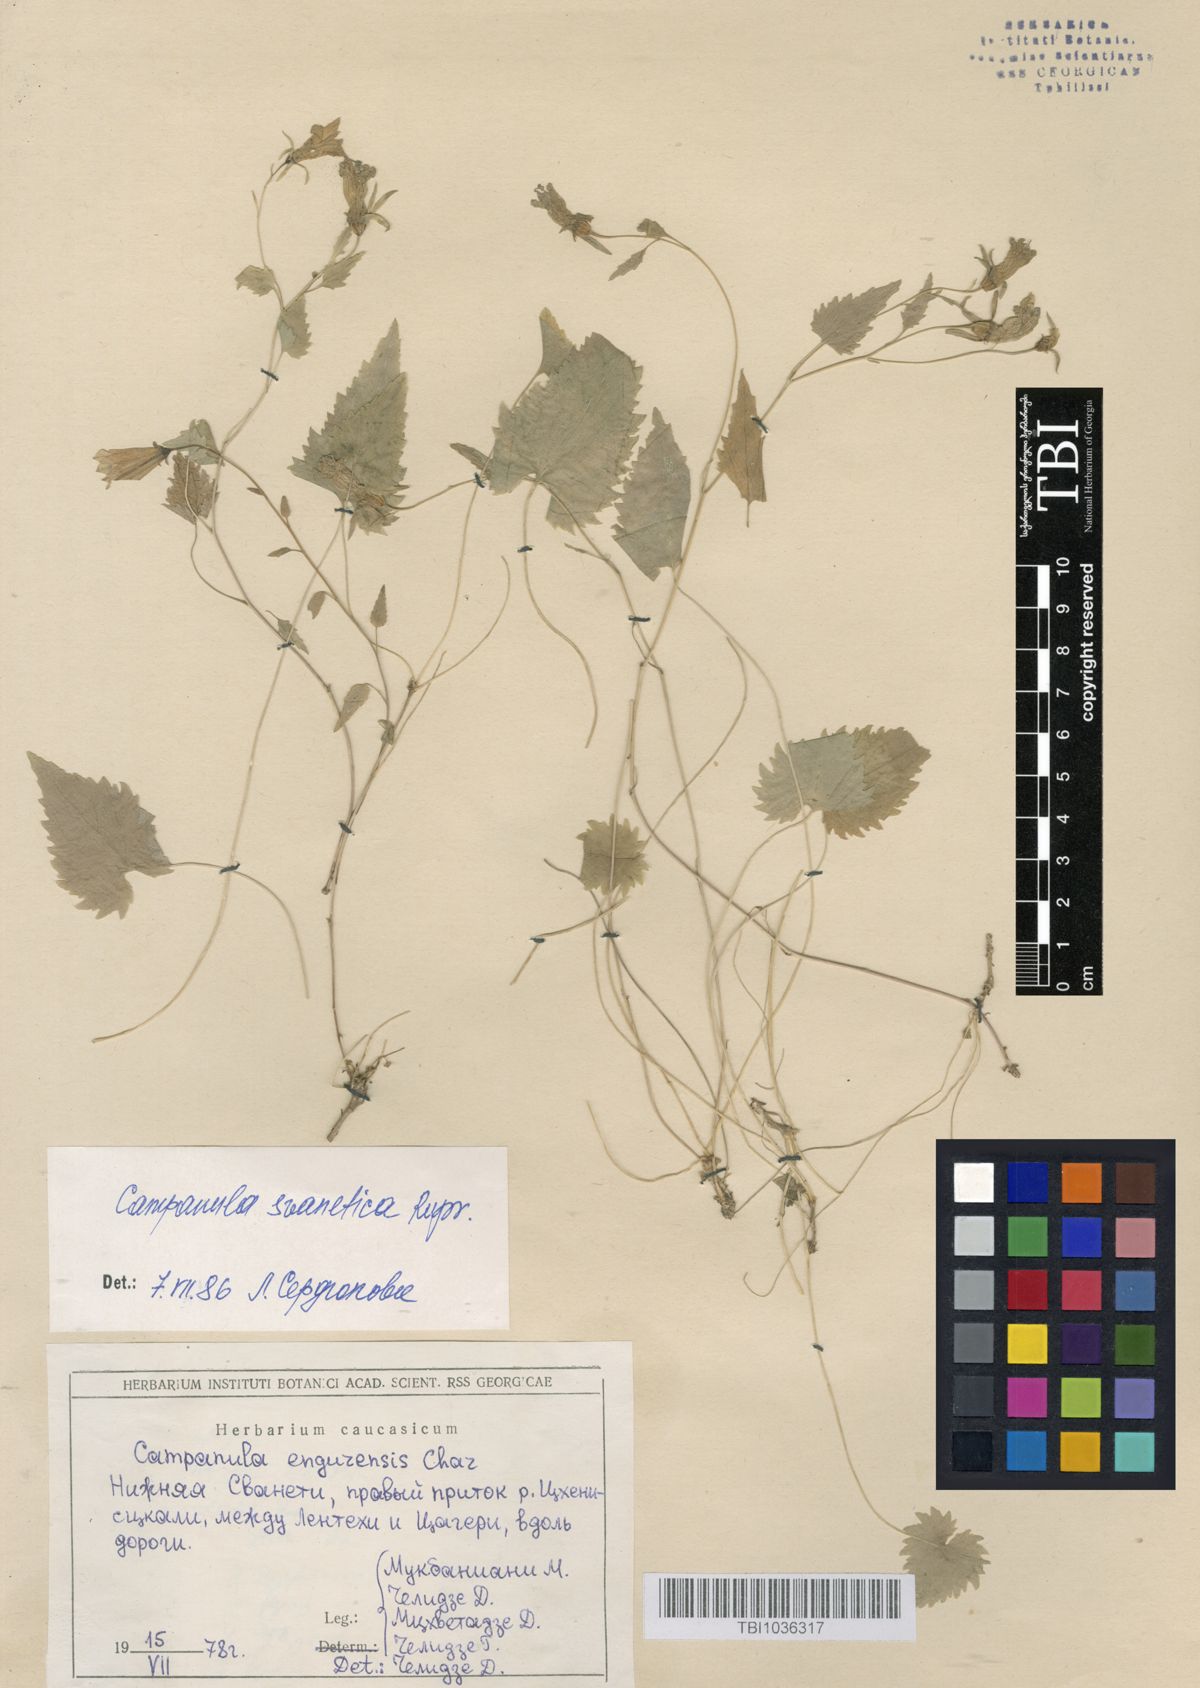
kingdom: Plantae
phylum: Tracheophyta
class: Magnoliopsida
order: Asterales
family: Campanulaceae
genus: Campanula
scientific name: Campanula suanetica
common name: Svanetian bellflower
